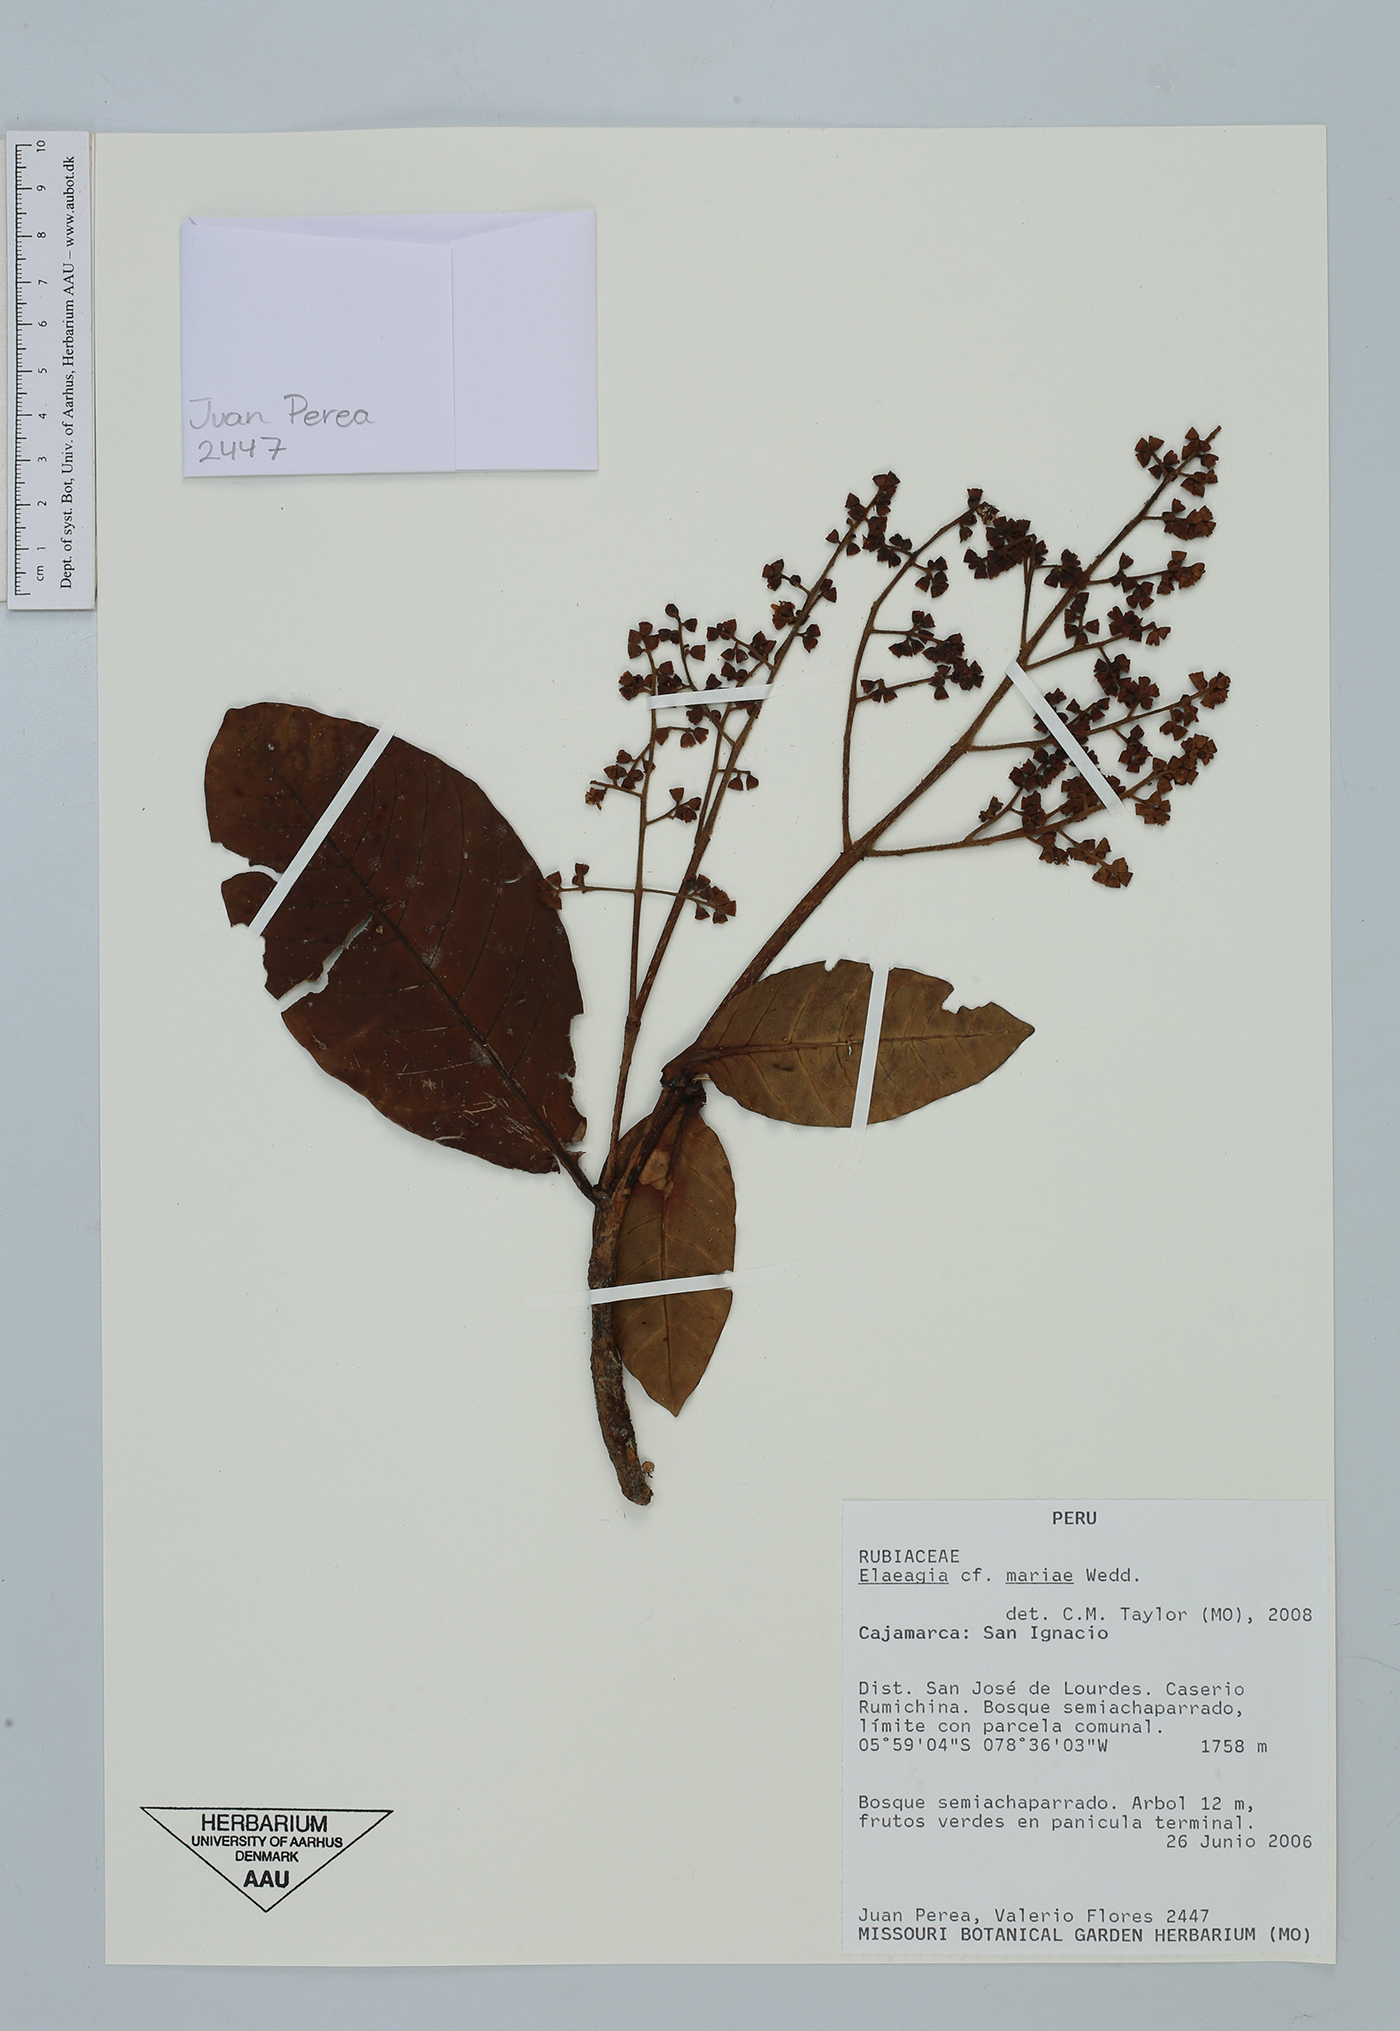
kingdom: Plantae
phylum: Tracheophyta
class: Magnoliopsida
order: Gentianales
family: Rubiaceae
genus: Elaeagia
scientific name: Elaeagia mariae
